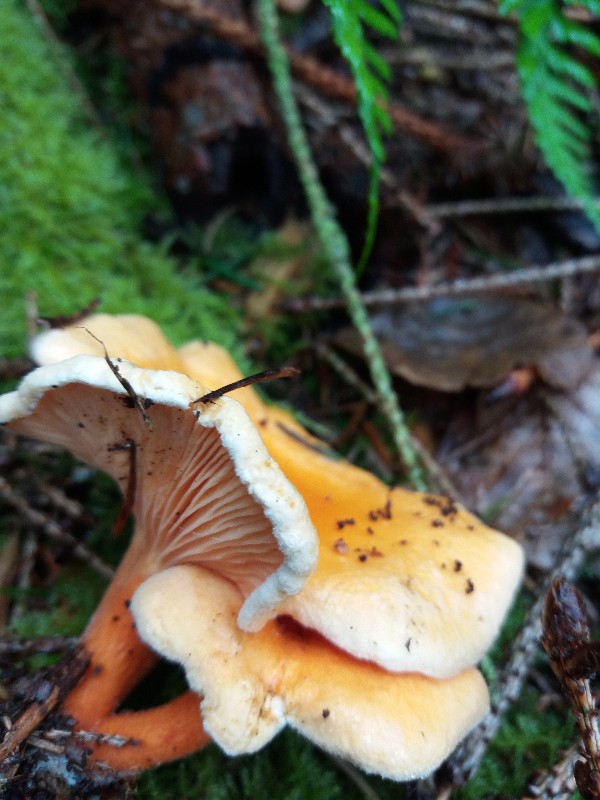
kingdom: Fungi
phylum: Basidiomycota
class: Agaricomycetes
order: Boletales
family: Hygrophoropsidaceae
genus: Hygrophoropsis
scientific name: Hygrophoropsis aurantiaca
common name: almindelig orangekantarel
